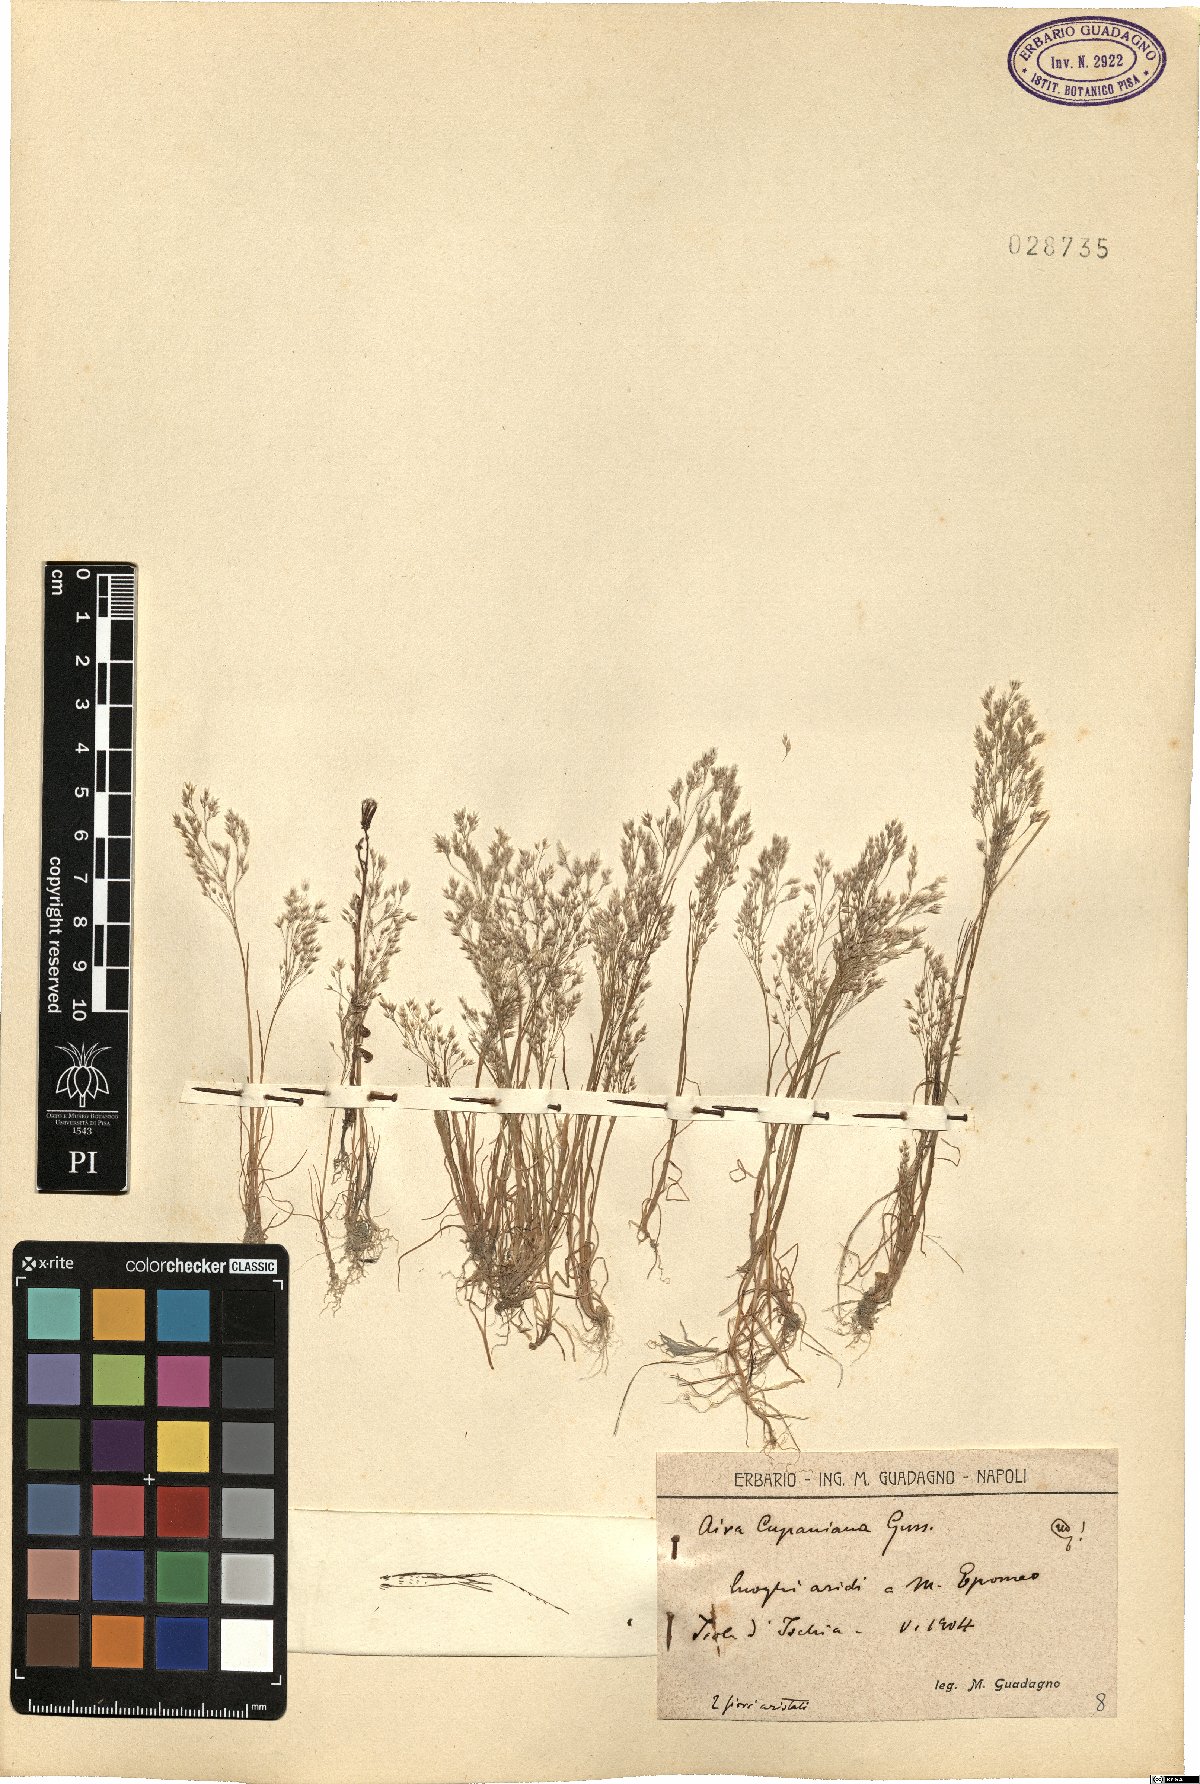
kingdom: Plantae
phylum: Tracheophyta
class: Liliopsida
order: Poales
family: Poaceae
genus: Aira
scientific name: Aira cupaniana
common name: Silver hairgrass
